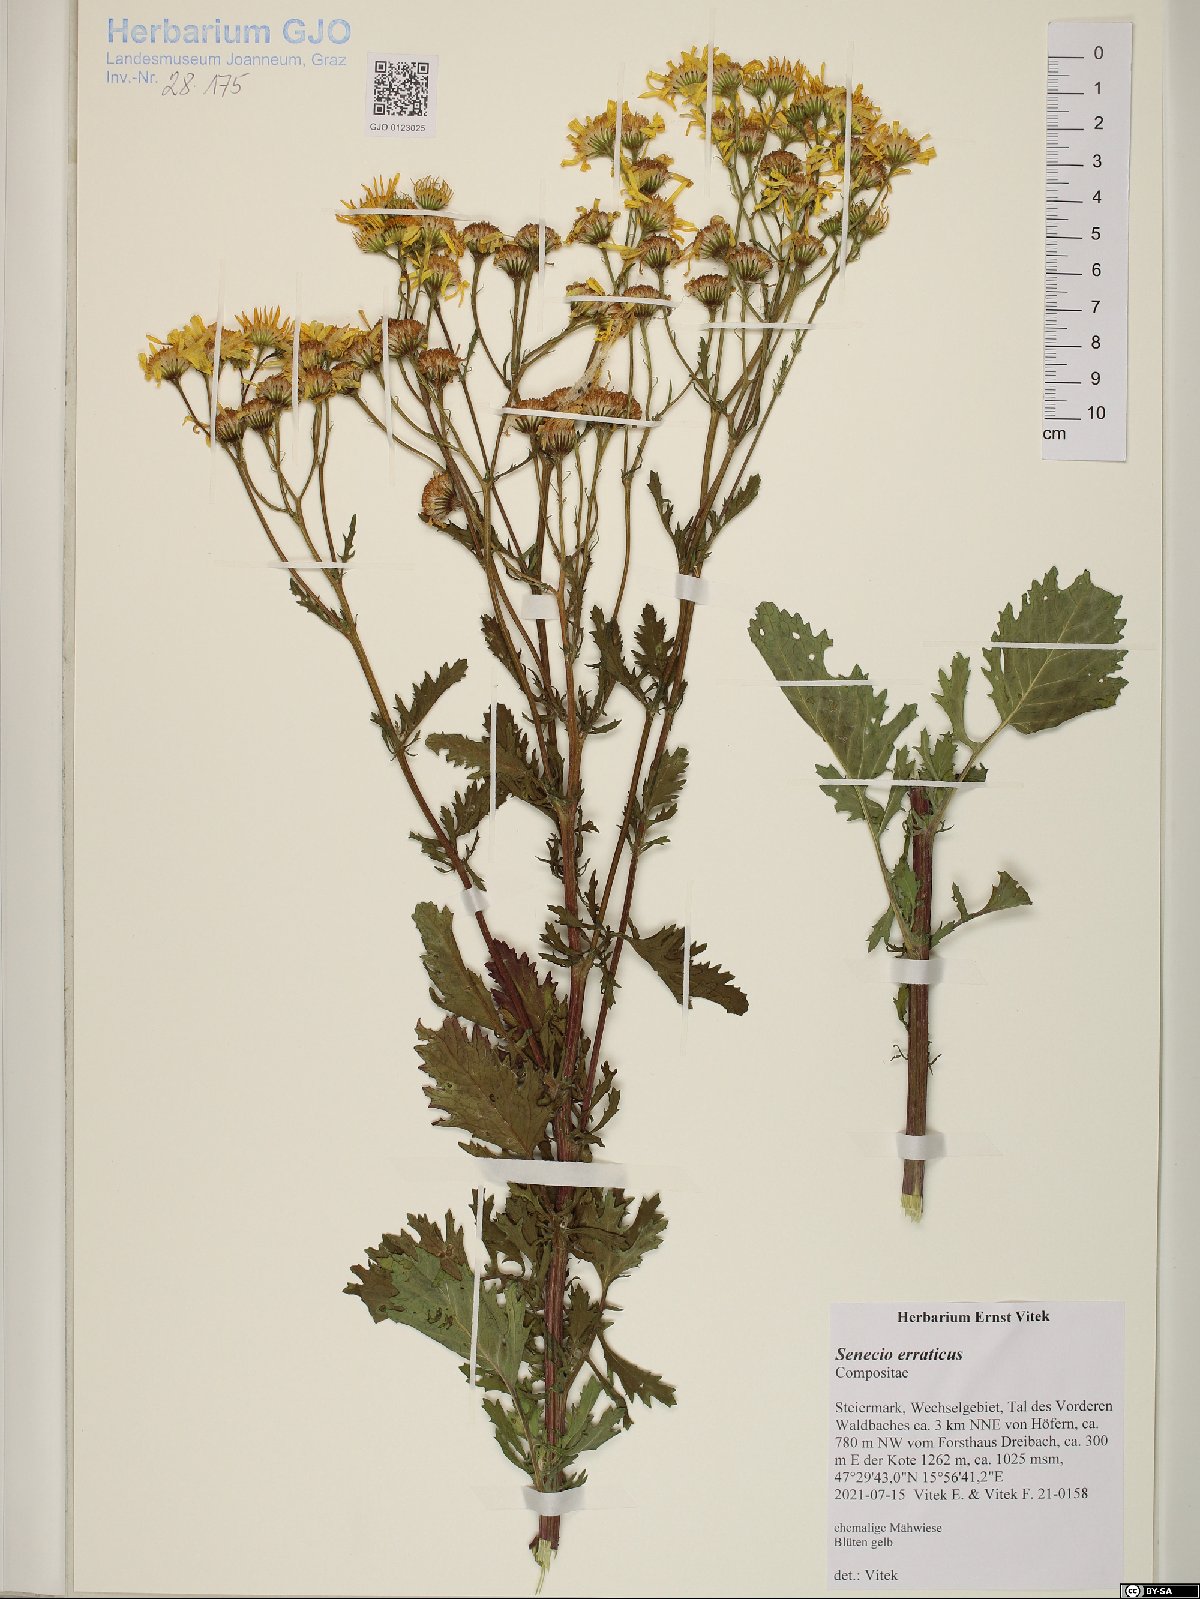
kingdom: Plantae
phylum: Tracheophyta
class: Magnoliopsida
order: Asterales
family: Asteraceae
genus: Jacobaea
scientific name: Jacobaea erratica
